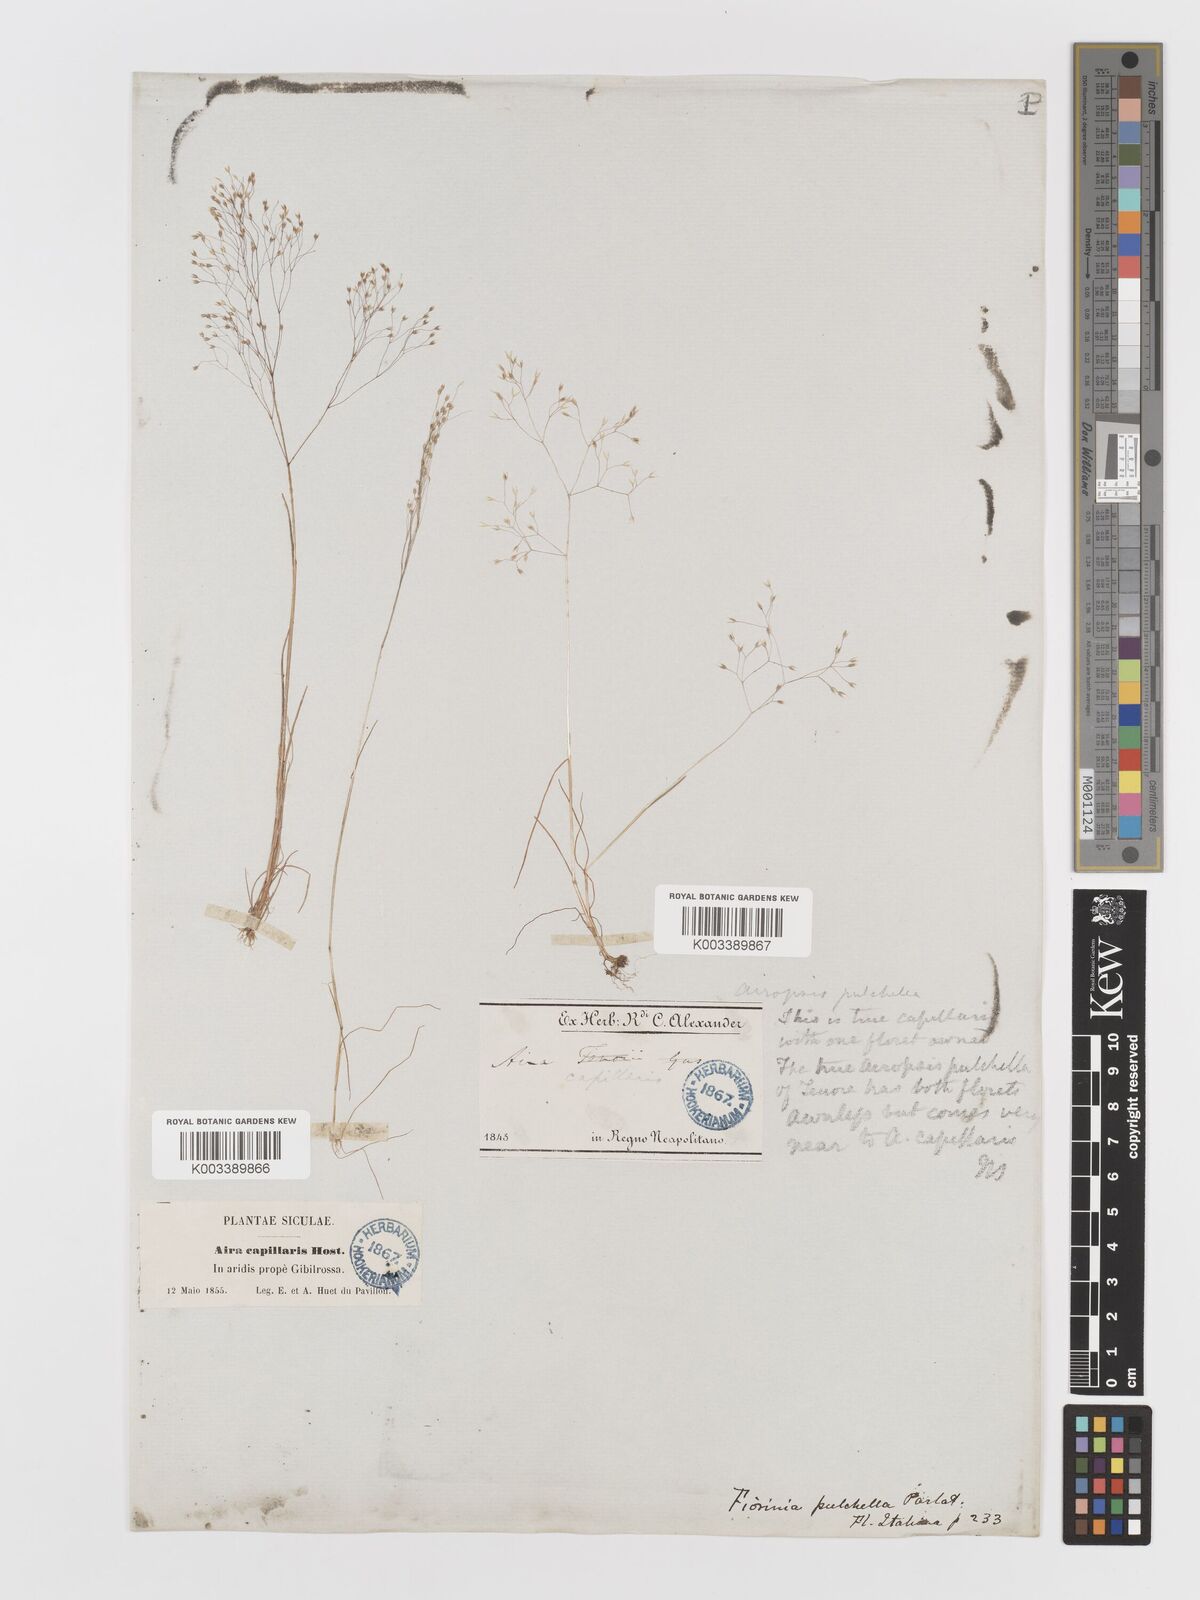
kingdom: Plantae
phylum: Tracheophyta
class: Liliopsida
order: Poales
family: Poaceae
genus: Aira
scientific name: Aira elegans
